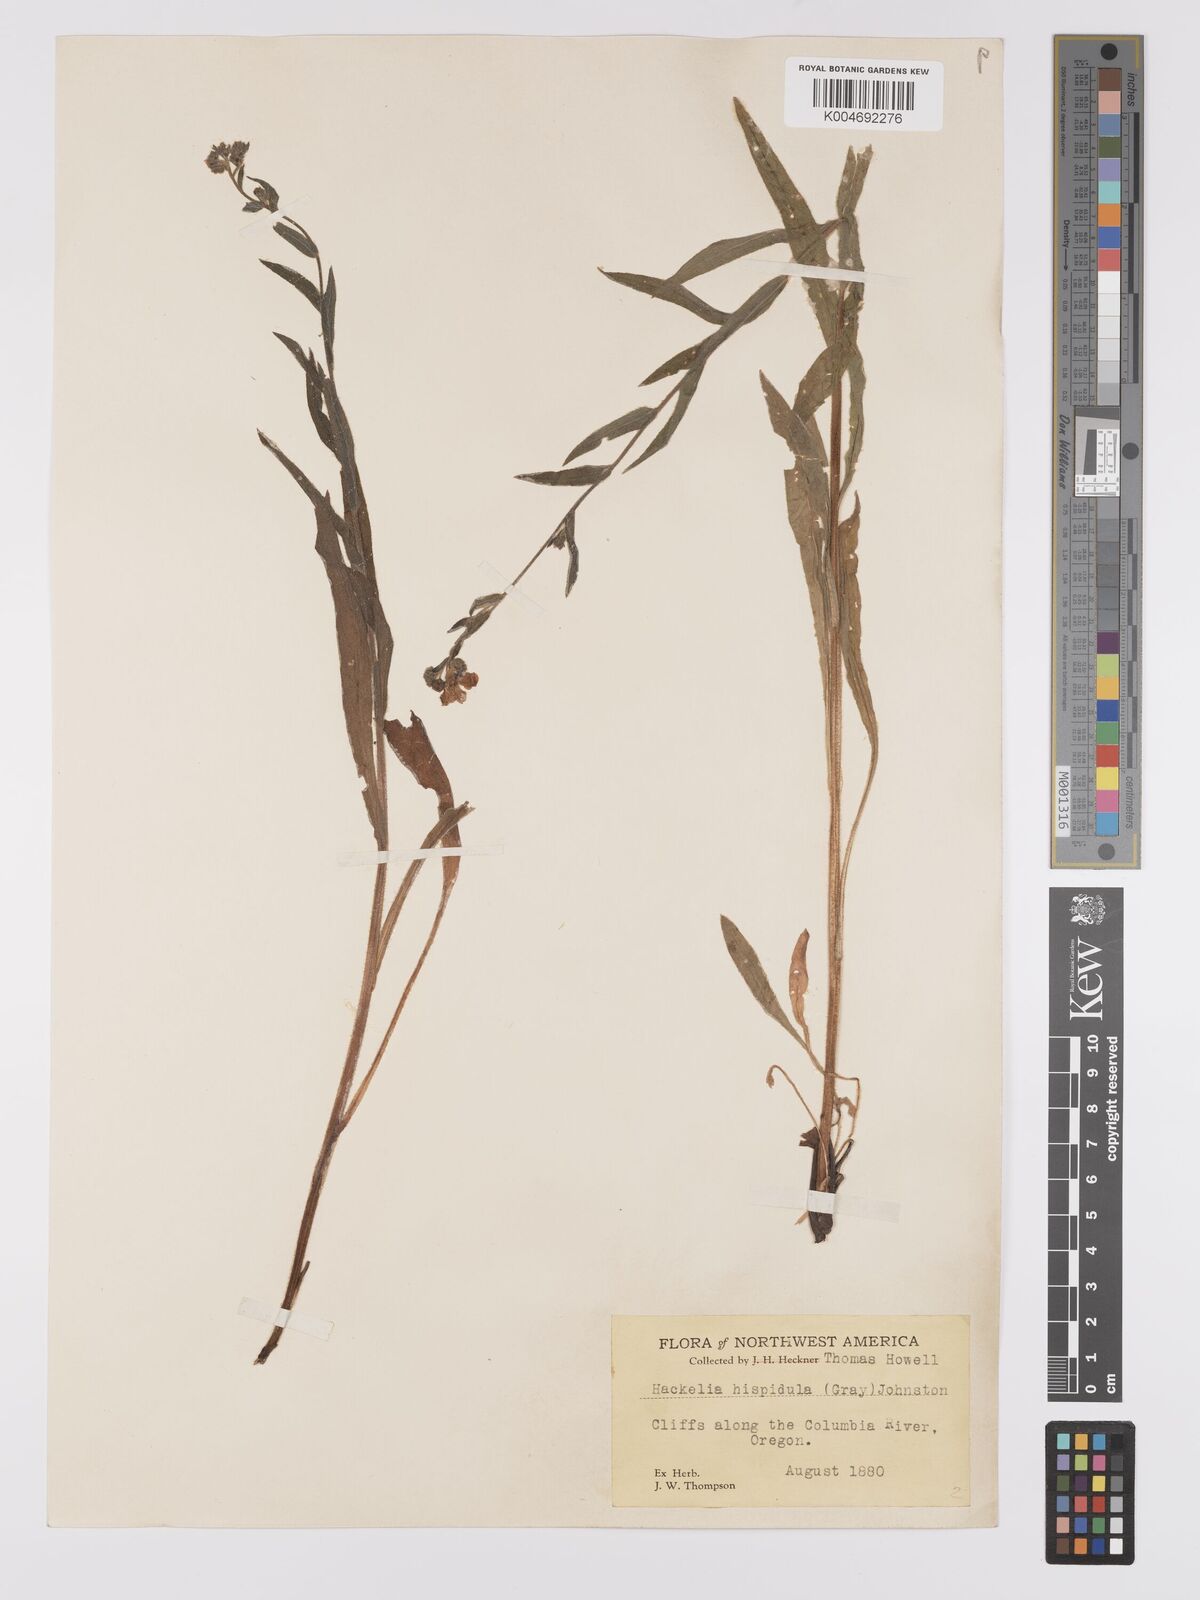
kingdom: Plantae
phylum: Tracheophyta
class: Magnoliopsida
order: Boraginales
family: Boraginaceae
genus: Hackelia
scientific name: Hackelia hispida
